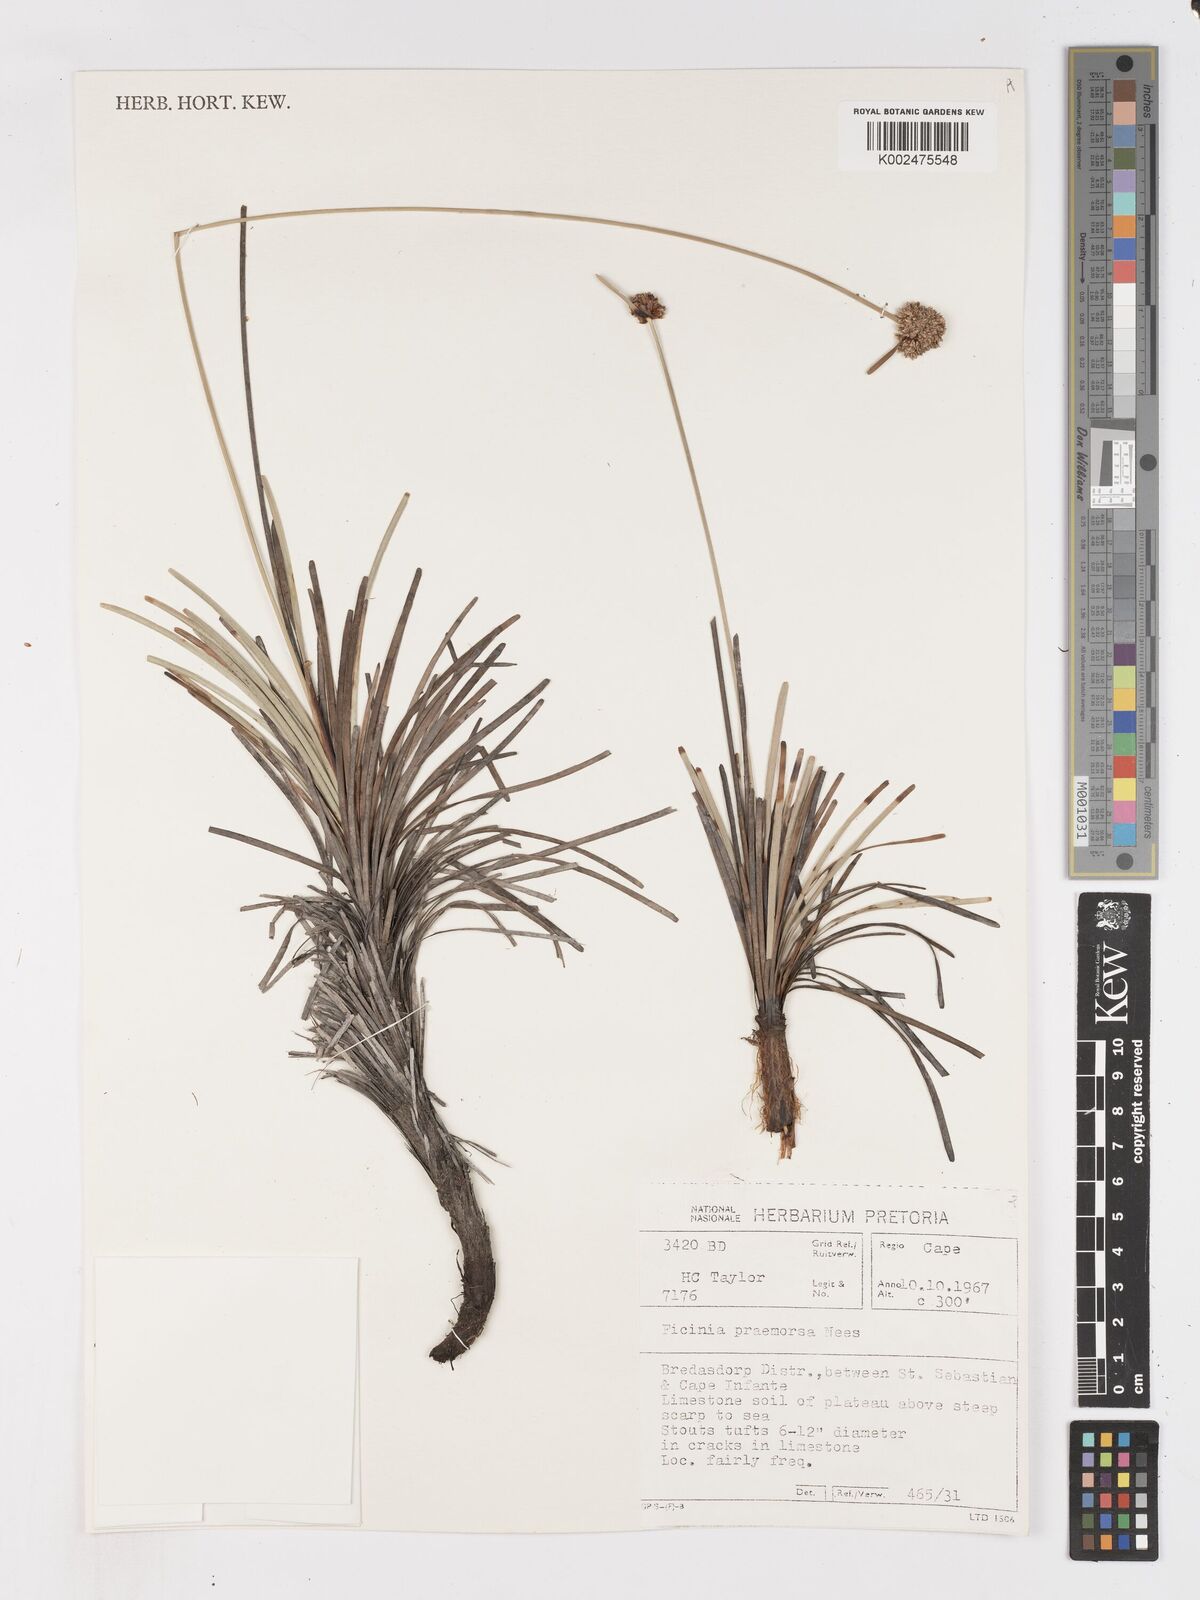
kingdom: Plantae
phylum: Tracheophyta
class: Liliopsida
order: Poales
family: Cyperaceae
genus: Ficinia
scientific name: Ficinia praemorsa
